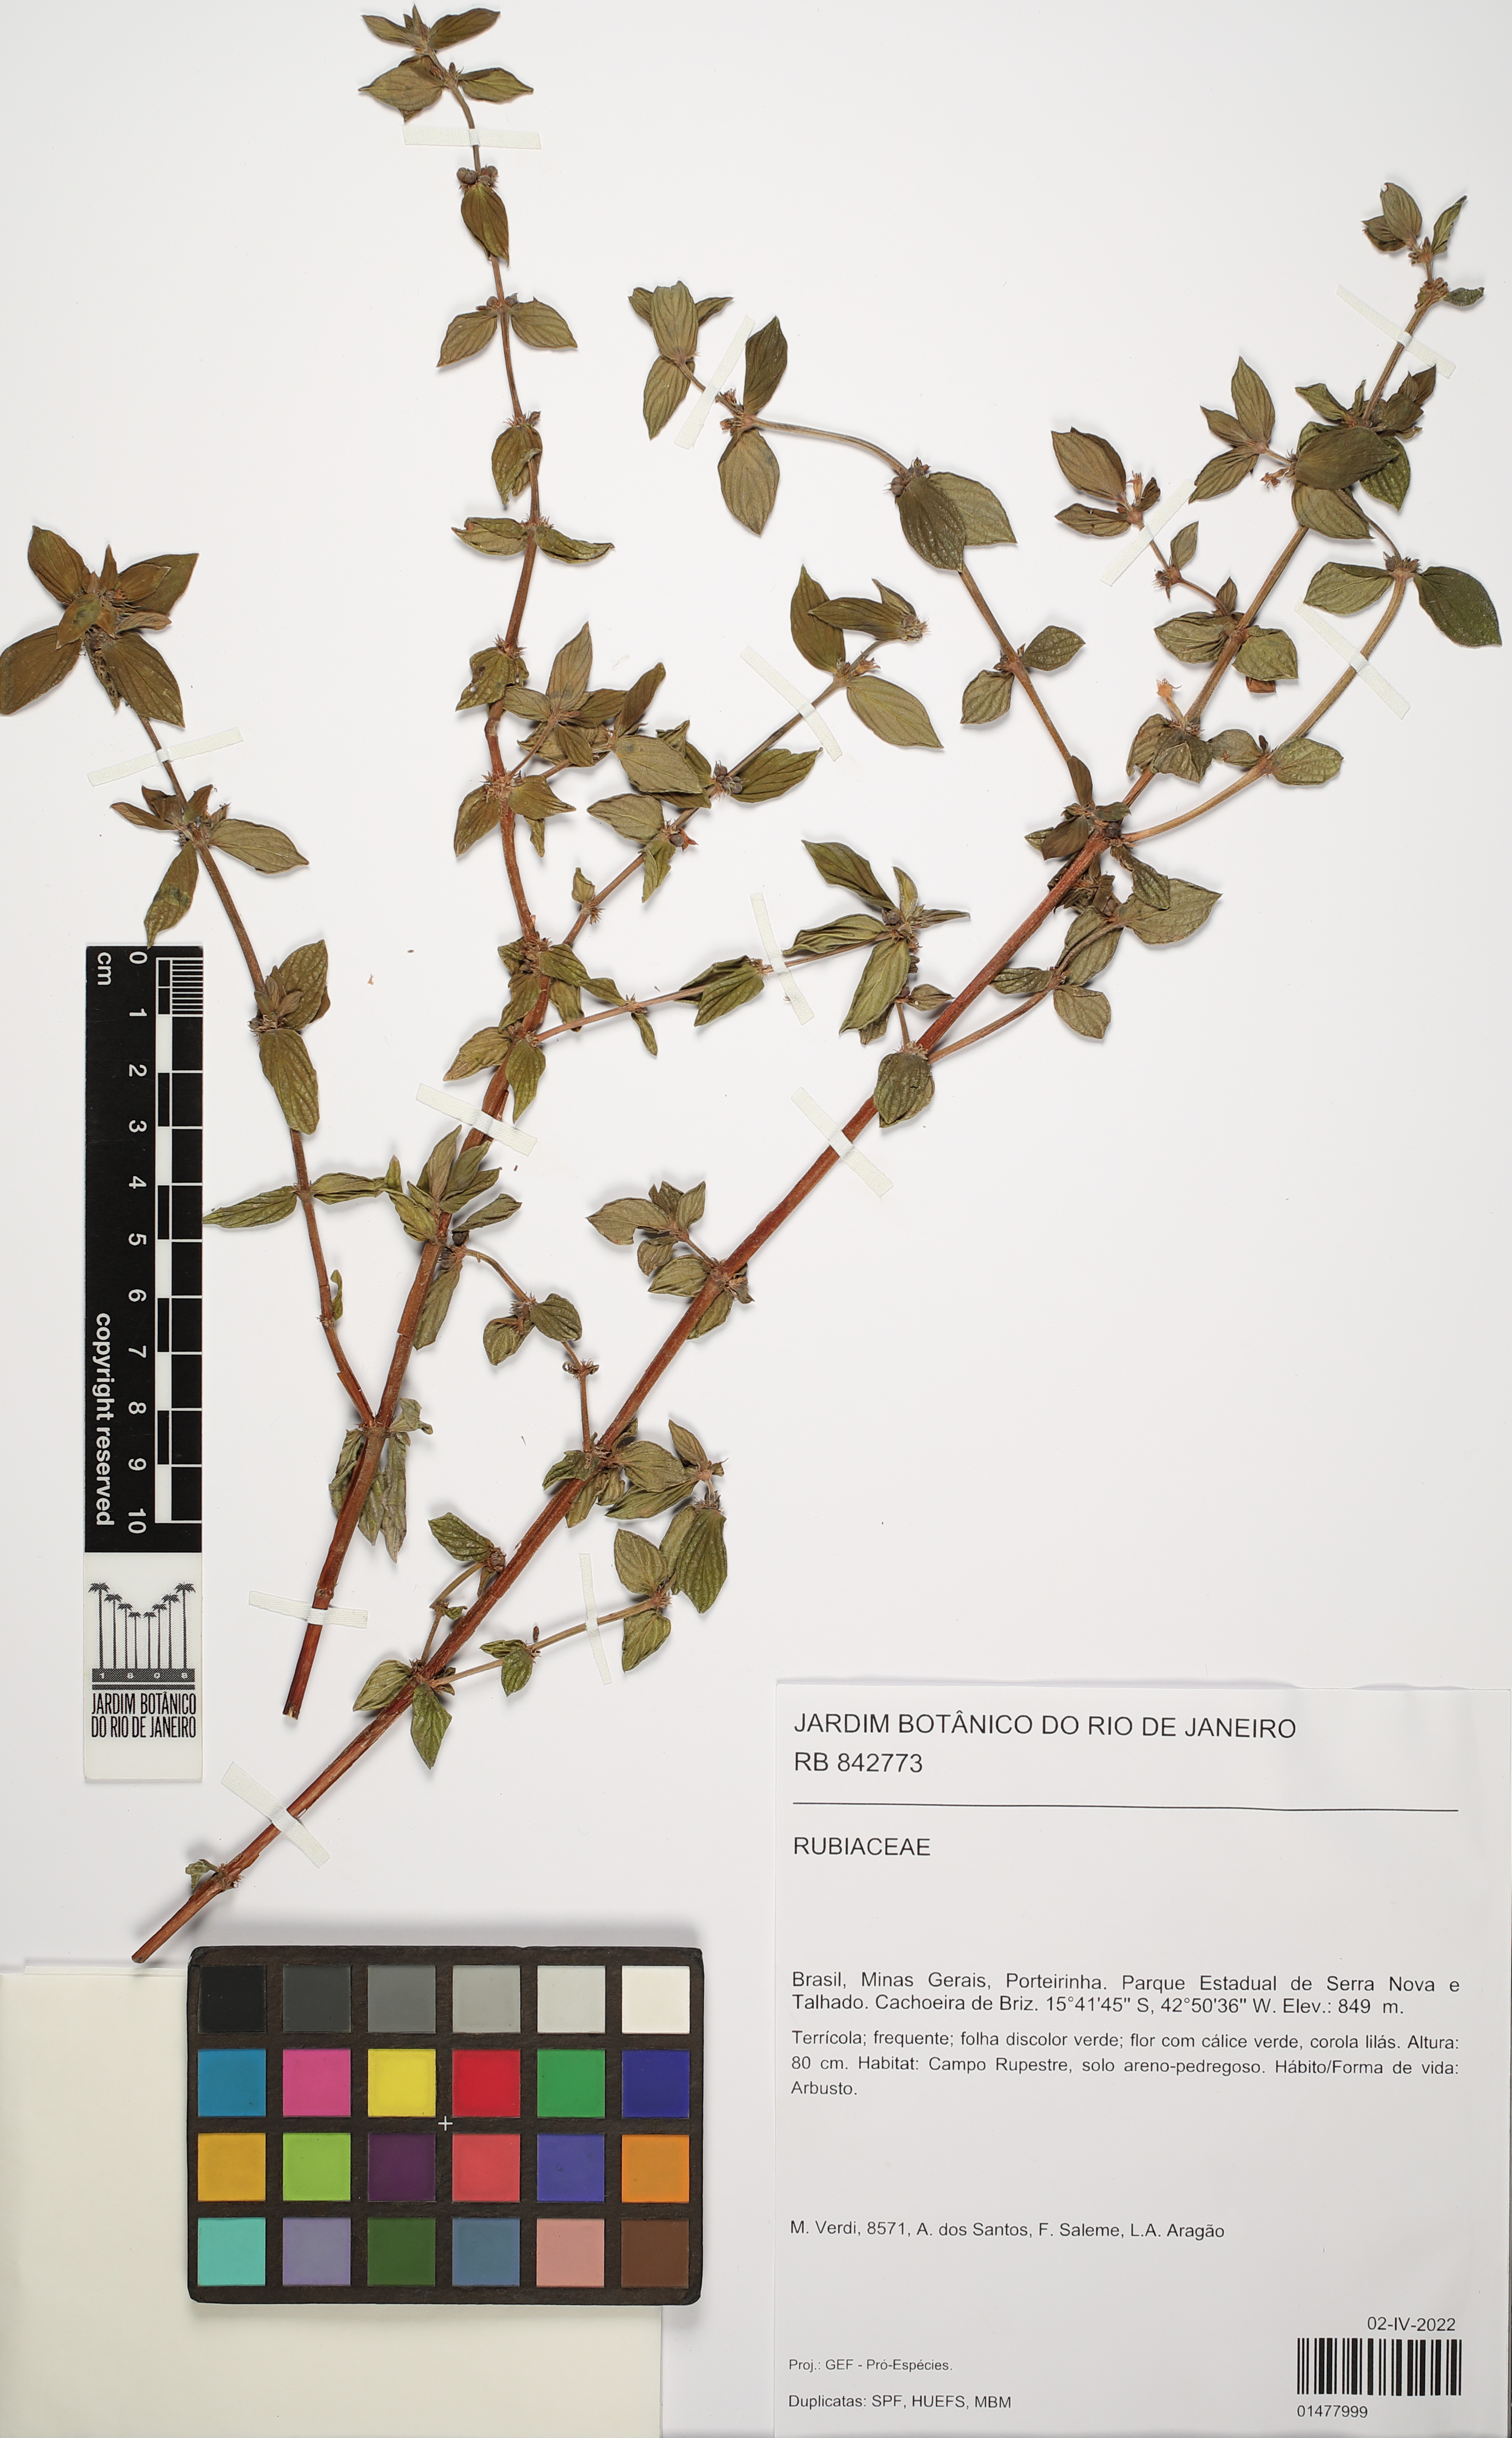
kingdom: Plantae
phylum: Tracheophyta
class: Magnoliopsida
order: Gentianales
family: Rubiaceae
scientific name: Rubiaceae
